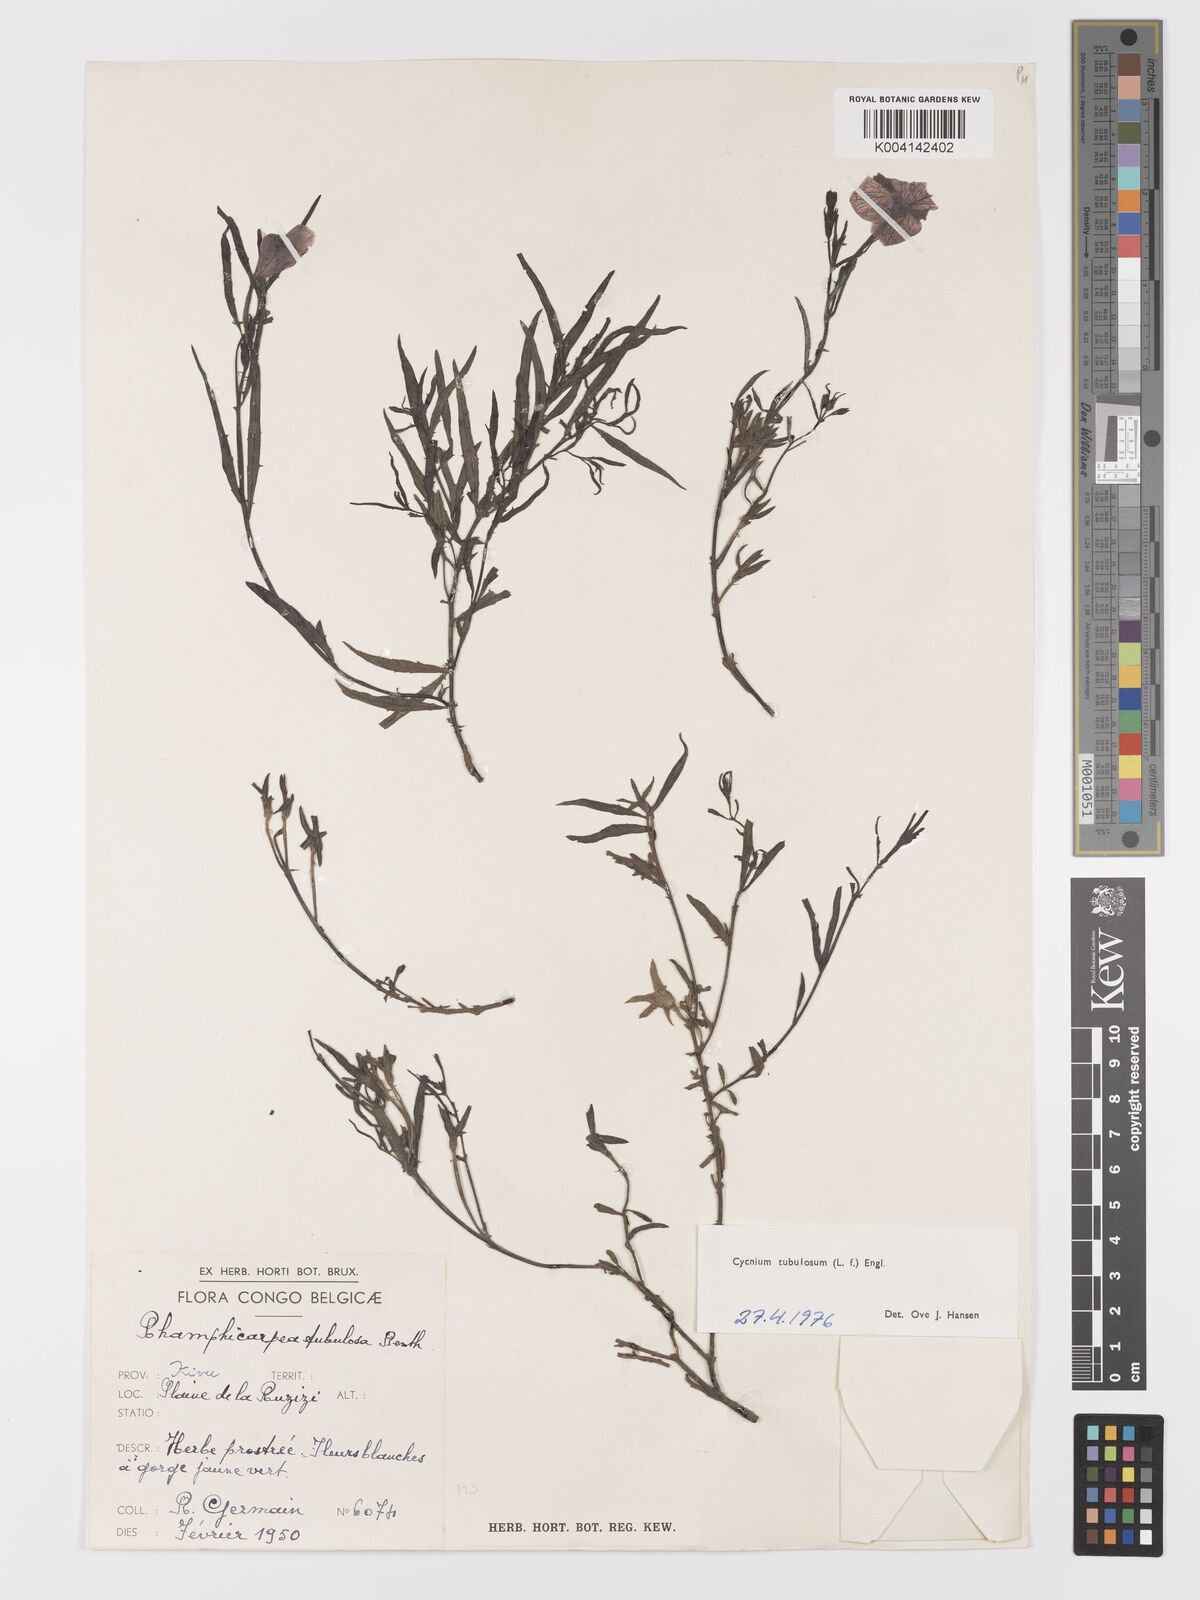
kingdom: Plantae
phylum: Tracheophyta
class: Magnoliopsida
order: Lamiales
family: Orobanchaceae
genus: Cycnium
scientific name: Cycnium tubulosum
